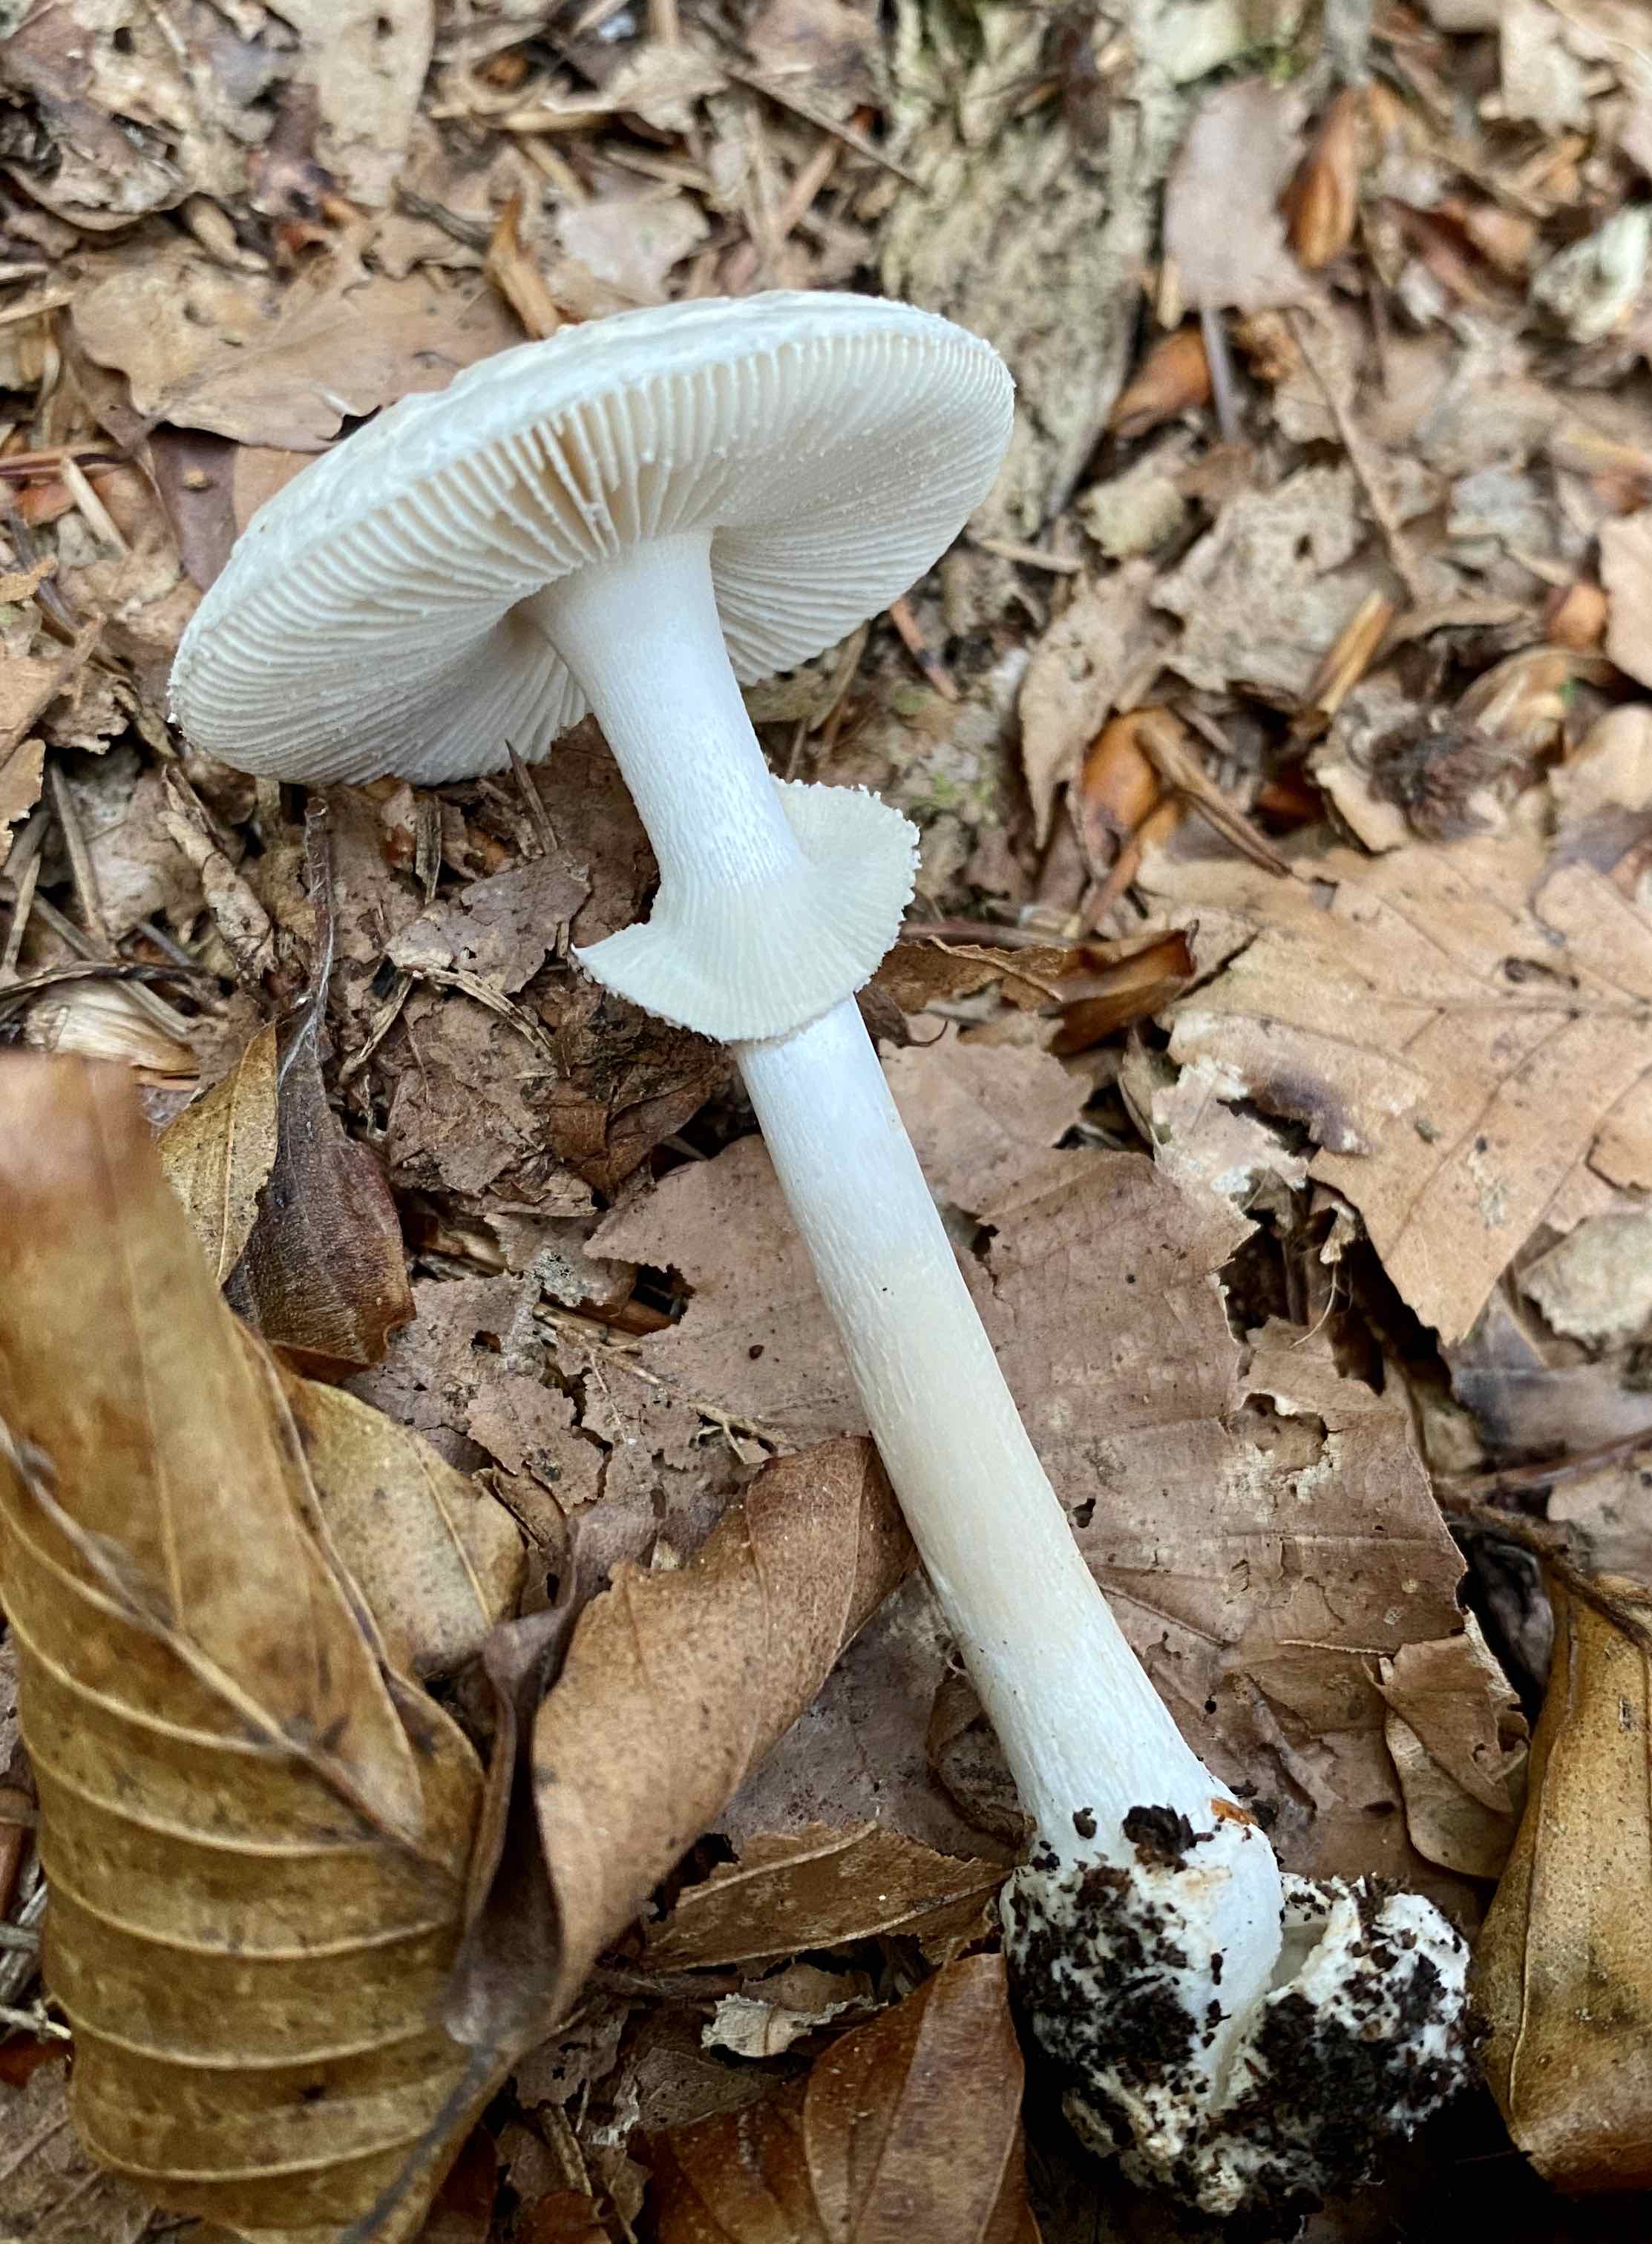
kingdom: Fungi
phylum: Basidiomycota
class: Agaricomycetes
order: Agaricales
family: Amanitaceae
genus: Amanita
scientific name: Amanita citrina
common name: False death-cap
